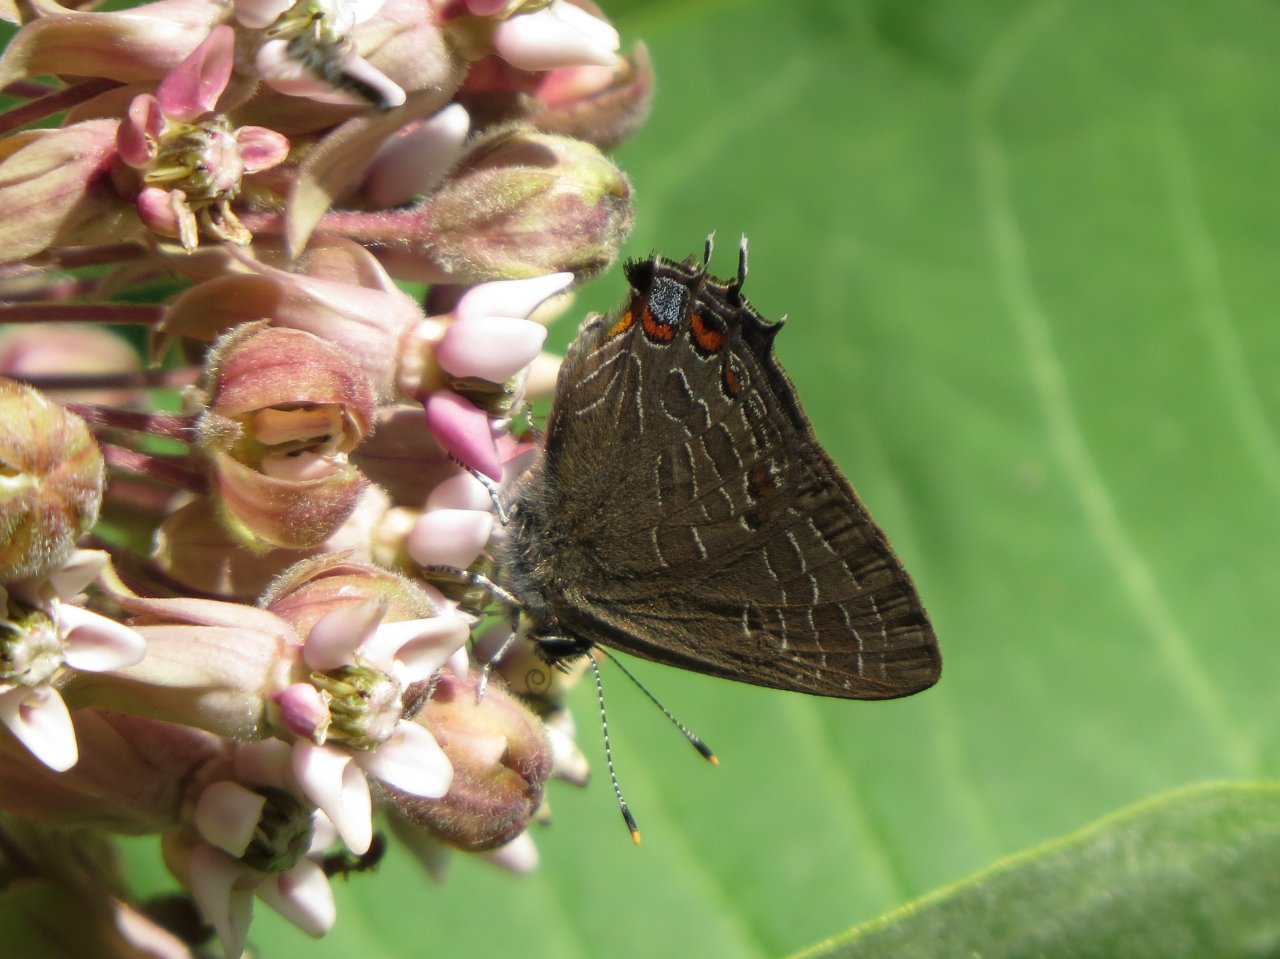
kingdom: Animalia
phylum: Arthropoda
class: Insecta
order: Lepidoptera
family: Lycaenidae
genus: Satyrium
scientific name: Satyrium liparops
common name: Striped Hairstreak
